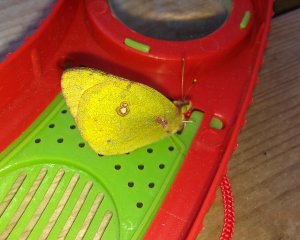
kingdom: Animalia
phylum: Arthropoda
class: Insecta
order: Lepidoptera
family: Pieridae
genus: Colias
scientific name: Colias philodice
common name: Clouded Sulphur
